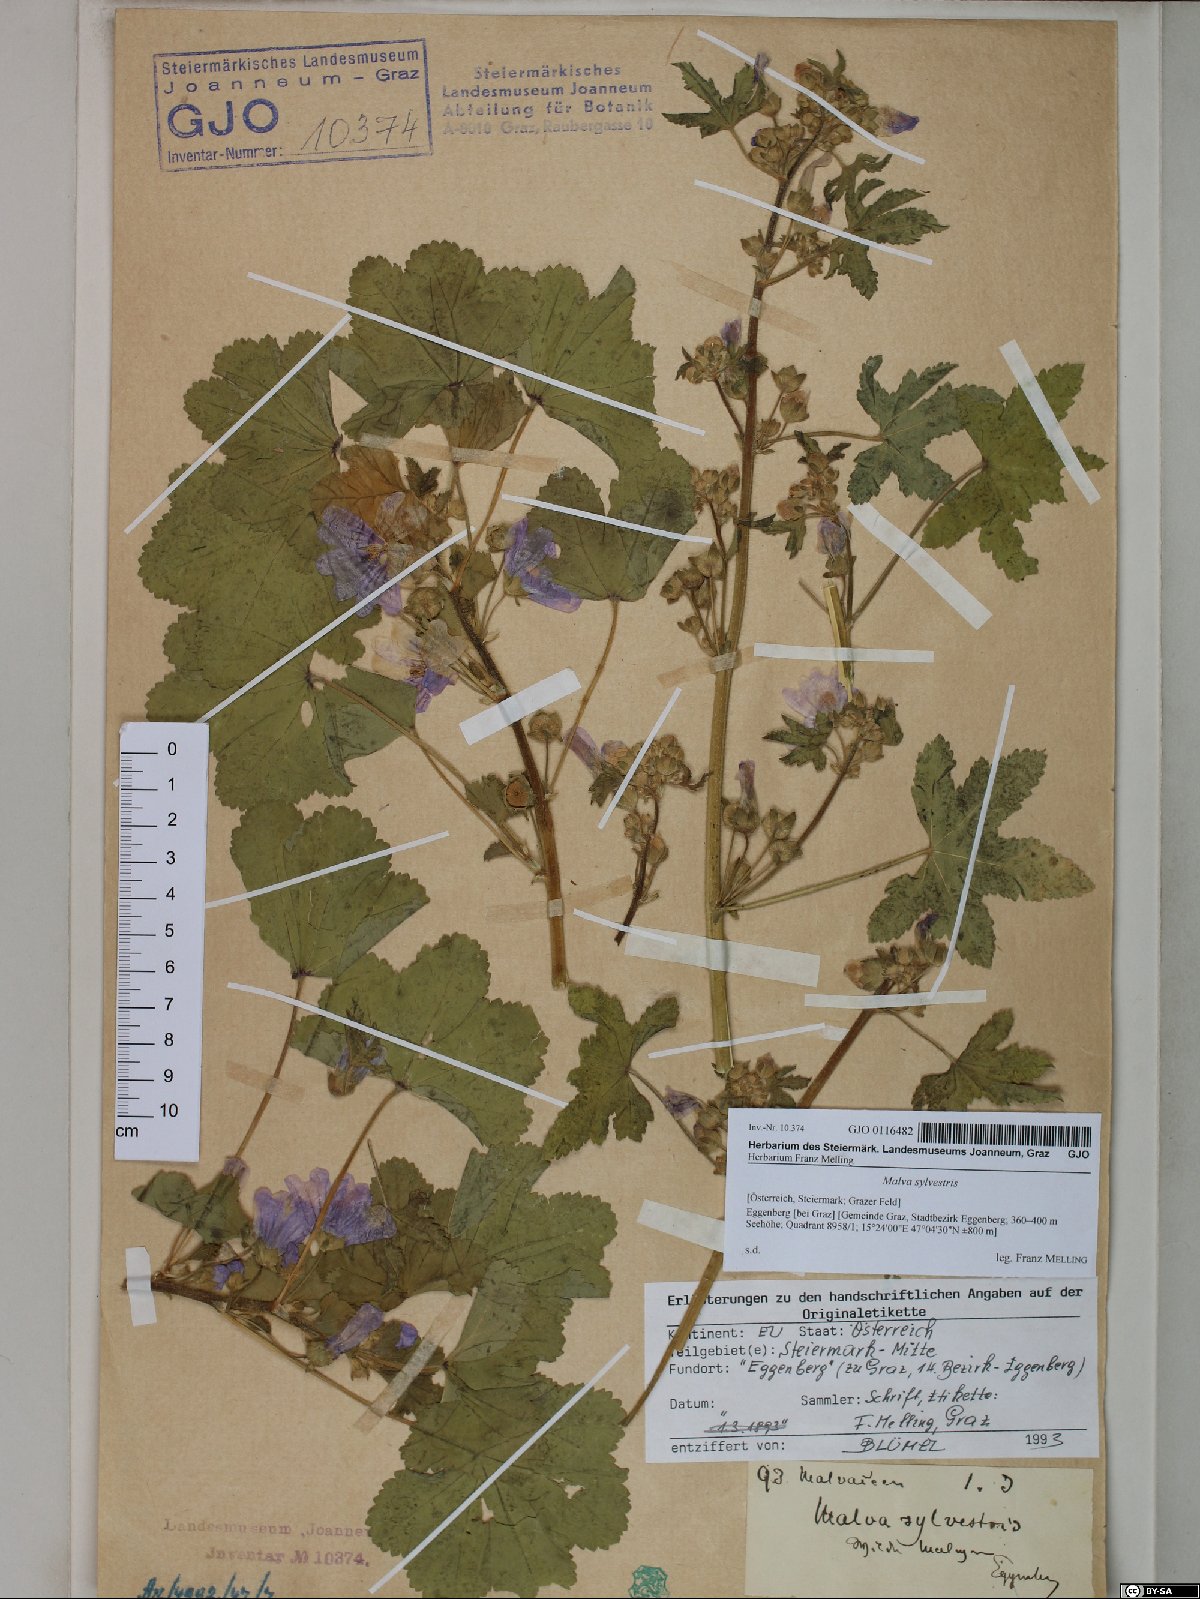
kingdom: Plantae
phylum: Tracheophyta
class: Magnoliopsida
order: Malvales
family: Malvaceae
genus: Malva
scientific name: Malva sylvestris
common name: Common mallow
